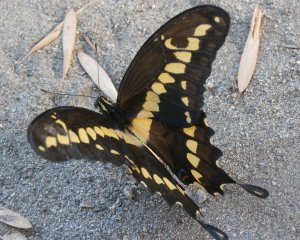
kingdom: Animalia
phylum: Arthropoda
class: Insecta
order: Lepidoptera
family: Papilionidae
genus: Papilio
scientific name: Papilio rumiko
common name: Western Giant Swallowtail
